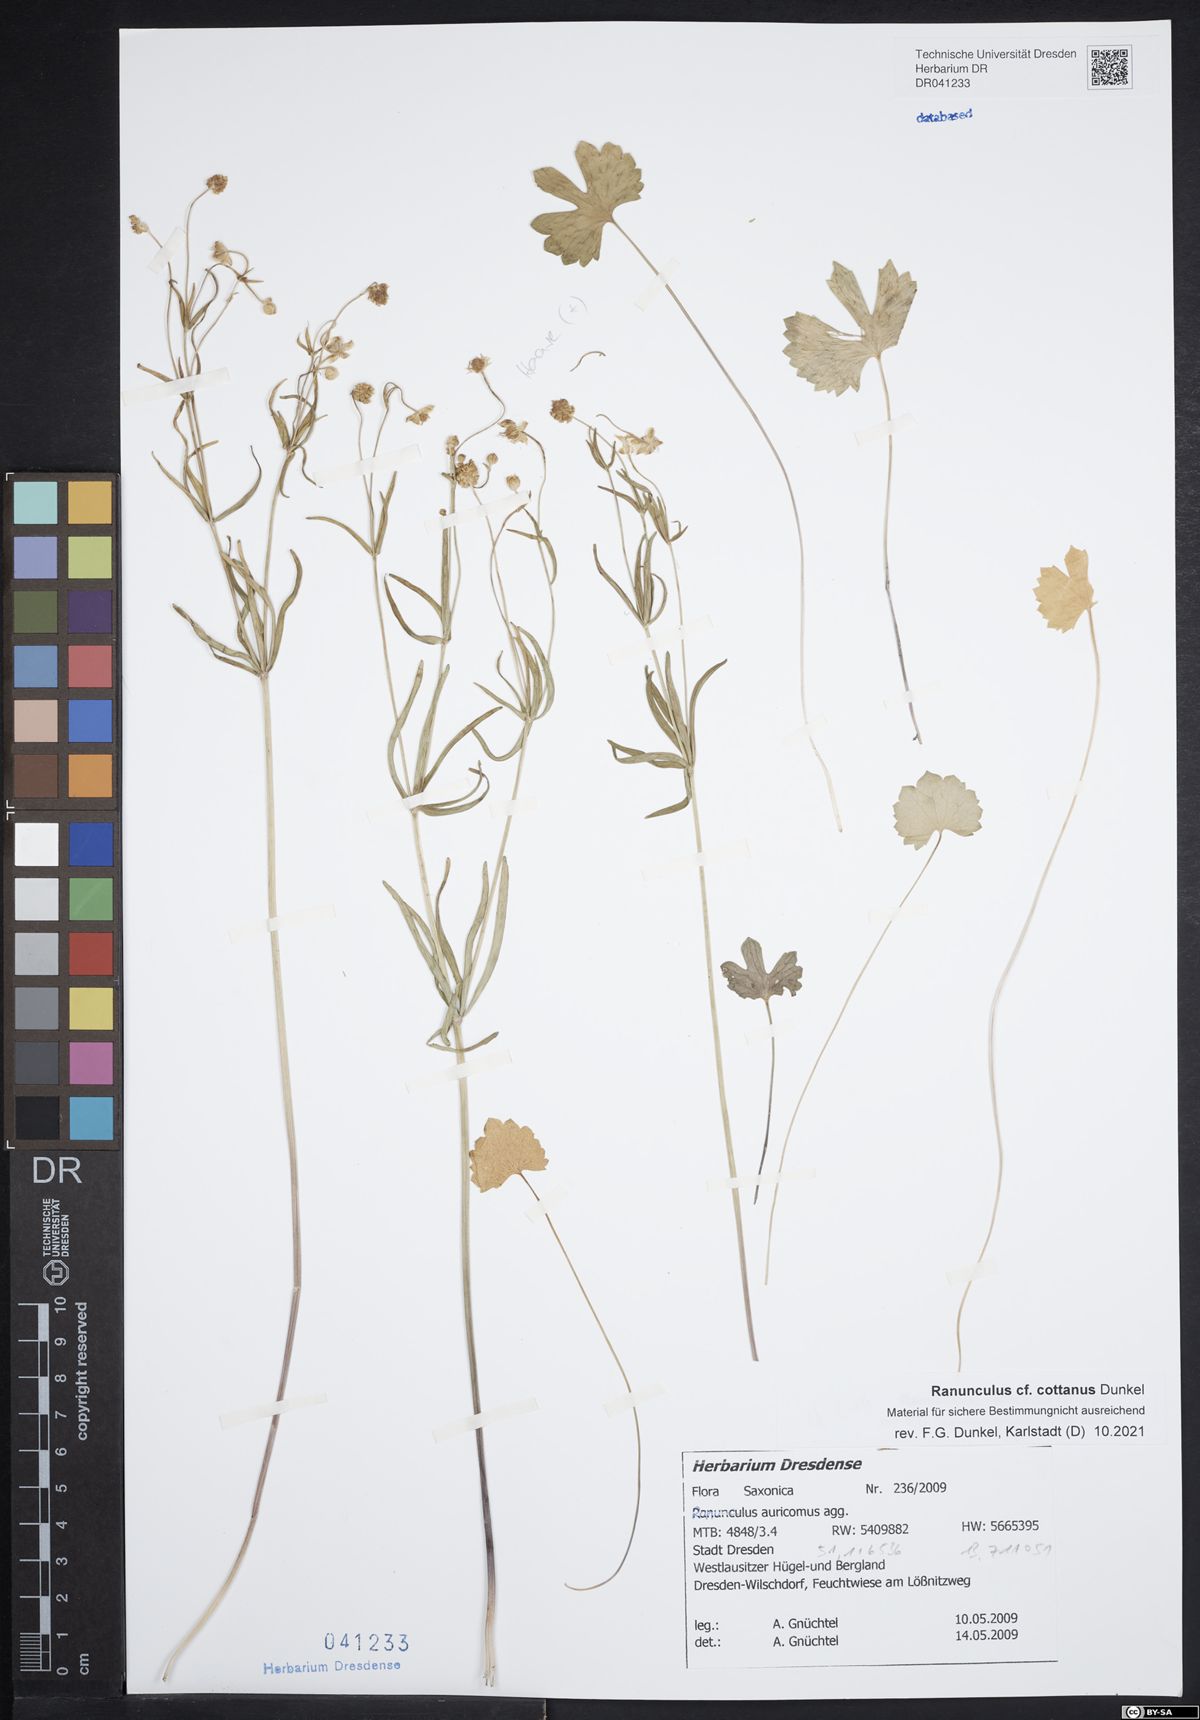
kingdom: Plantae
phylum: Tracheophyta
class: Magnoliopsida
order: Ranunculales
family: Ranunculaceae
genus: Ranunculus
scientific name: Ranunculus cottanus
